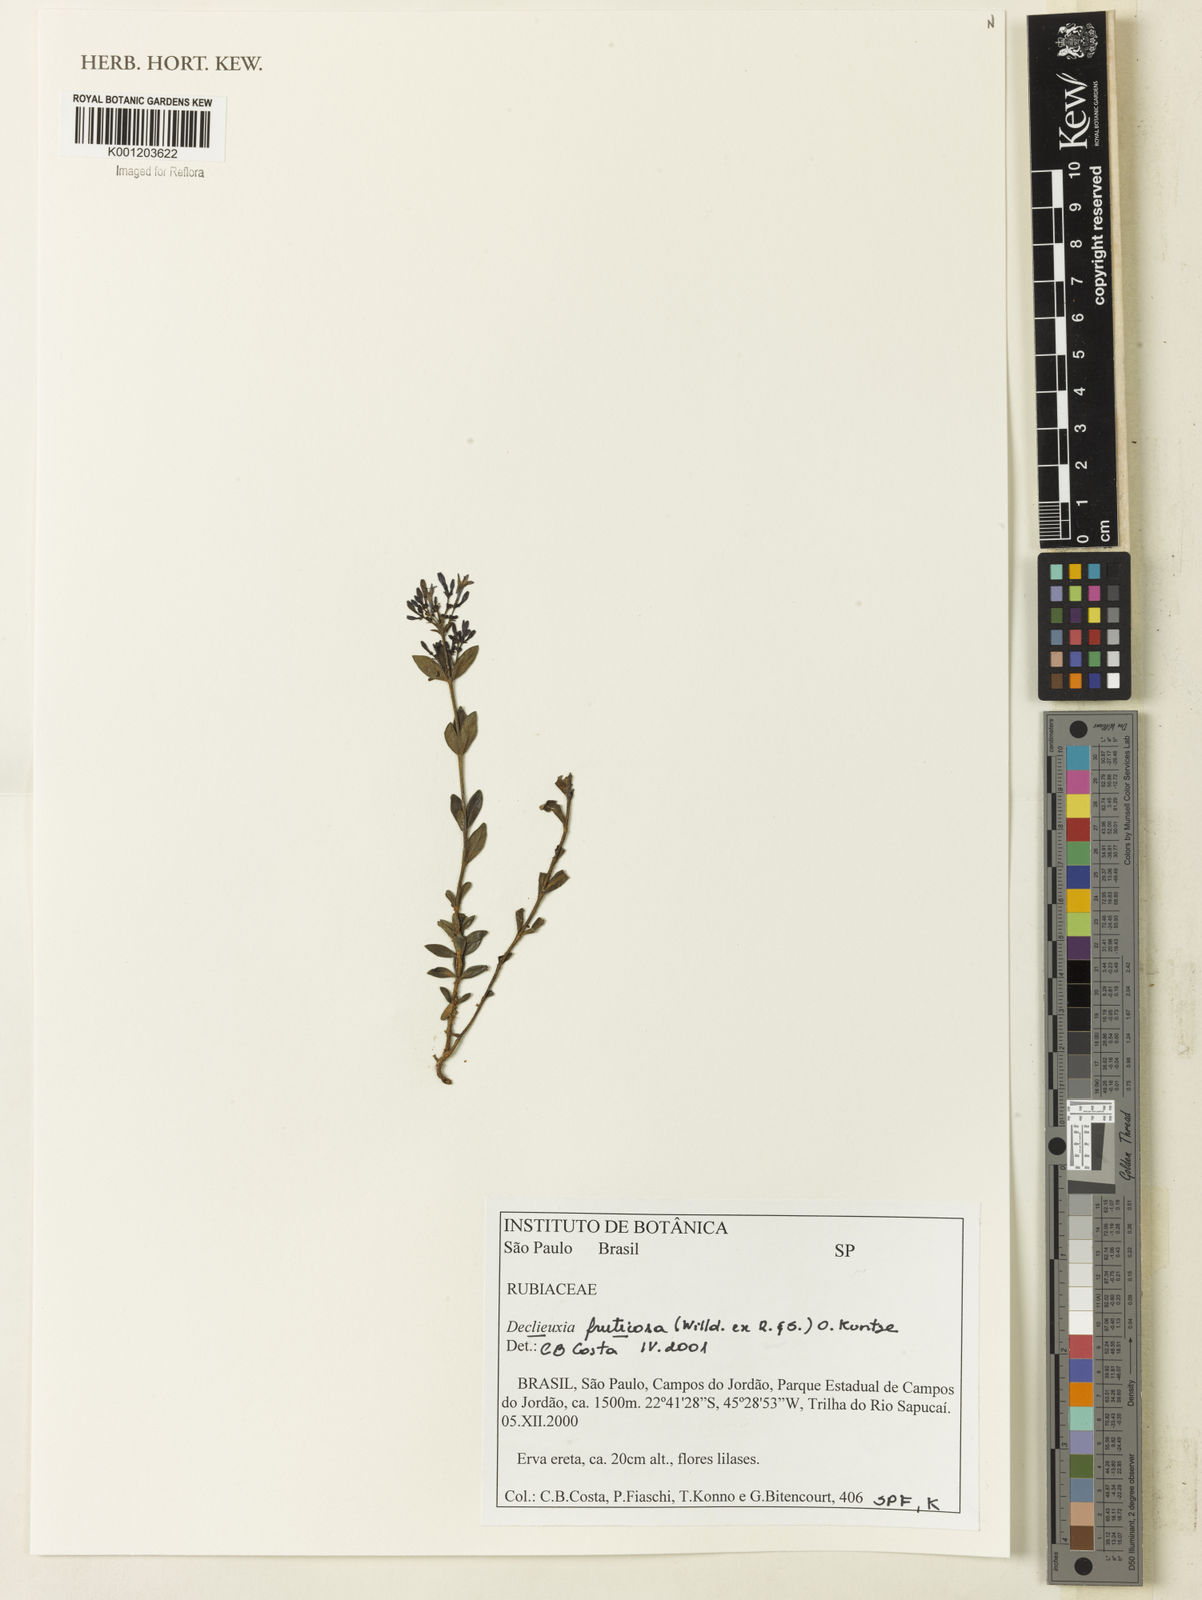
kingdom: Plantae
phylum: Tracheophyta
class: Magnoliopsida
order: Gentianales
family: Rubiaceae
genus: Declieuxia
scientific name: Declieuxia fruticosa
